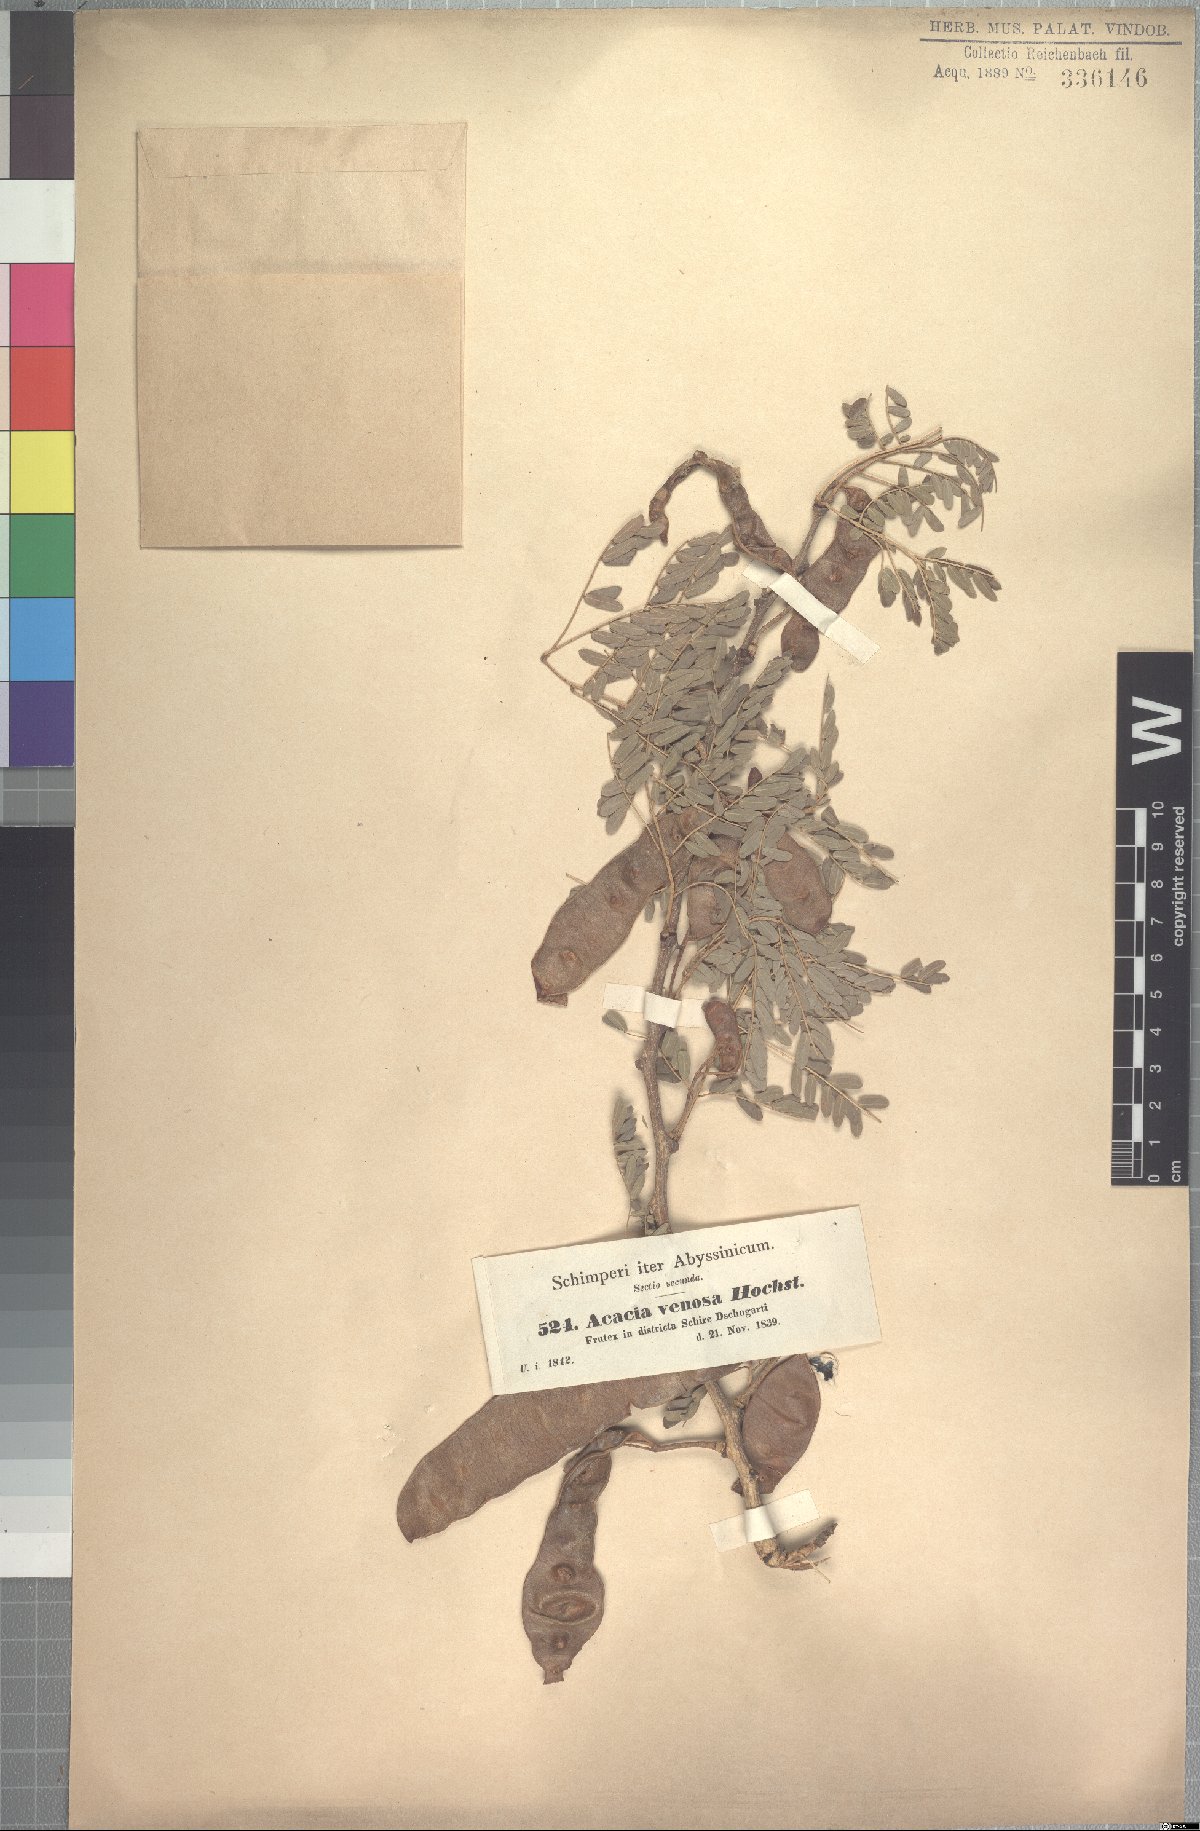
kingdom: Plantae
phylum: Tracheophyta
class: Magnoliopsida
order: Fabales
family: Fabaceae
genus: Senegalia
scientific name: Senegalia venosa
